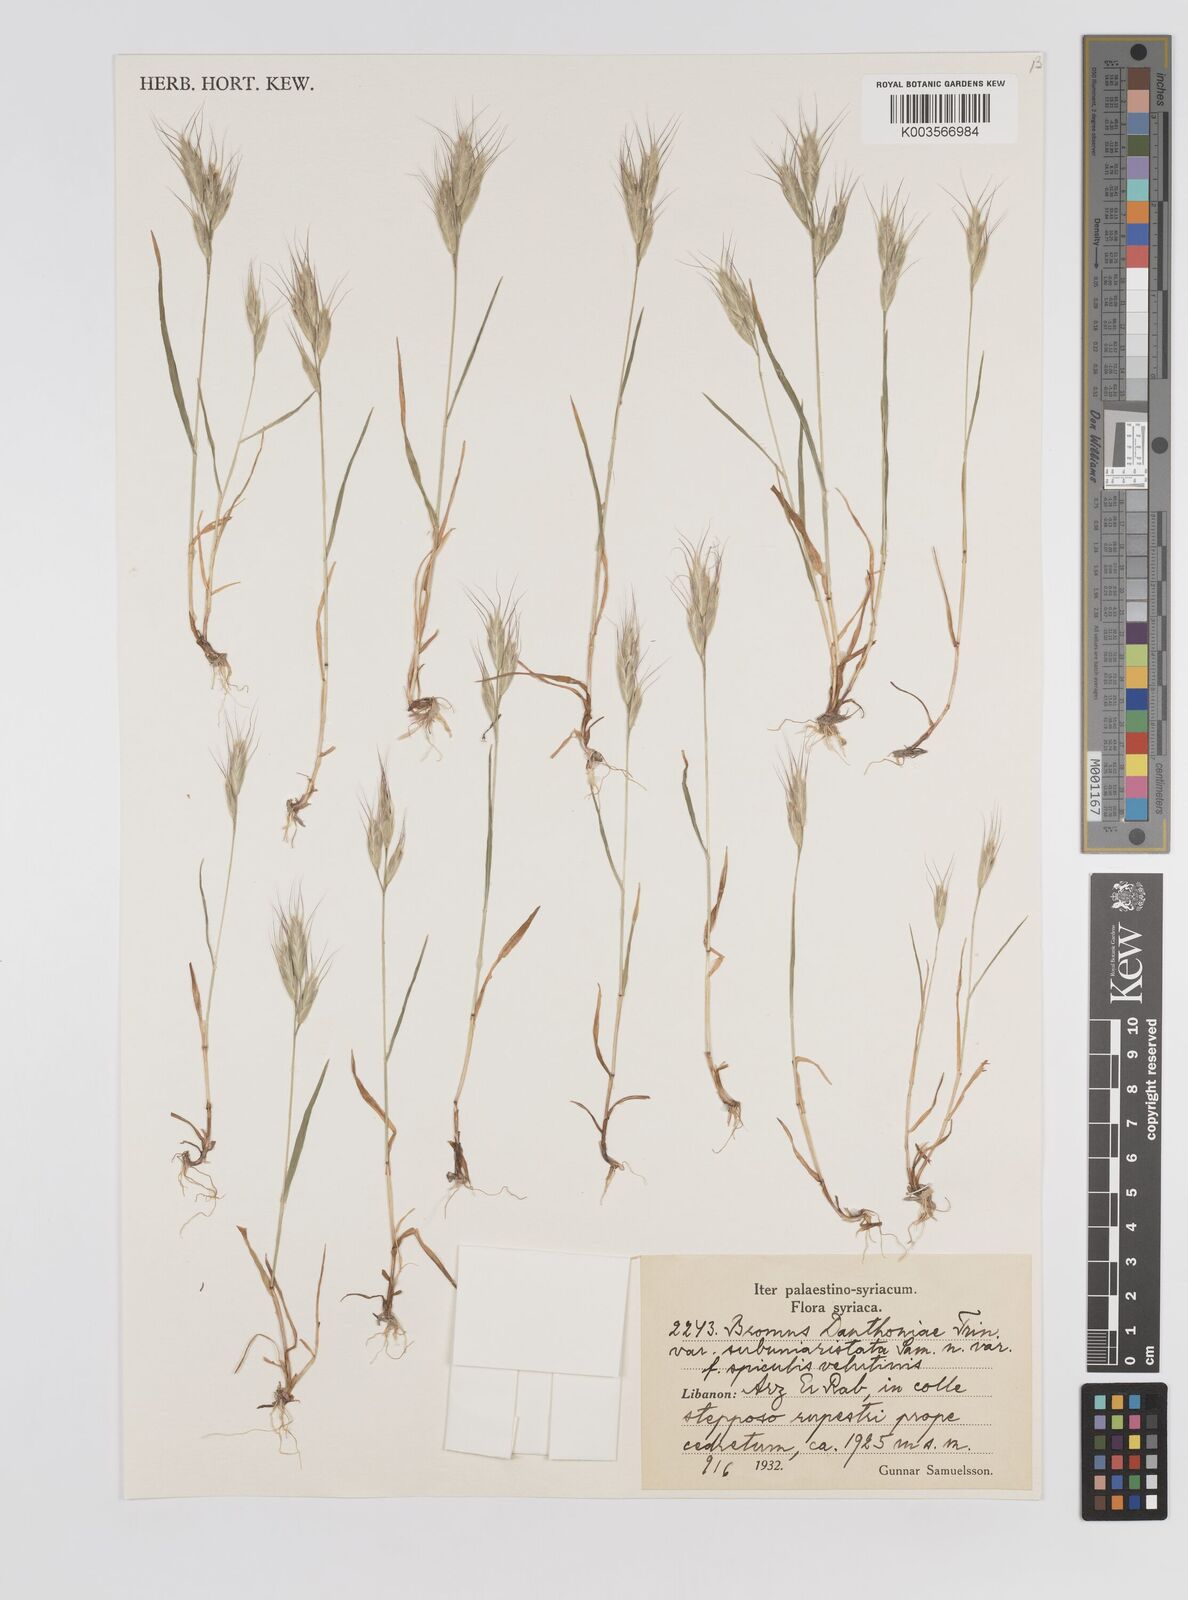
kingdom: Plantae
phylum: Tracheophyta
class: Liliopsida
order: Poales
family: Poaceae
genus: Bromus
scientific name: Bromus danthoniae
